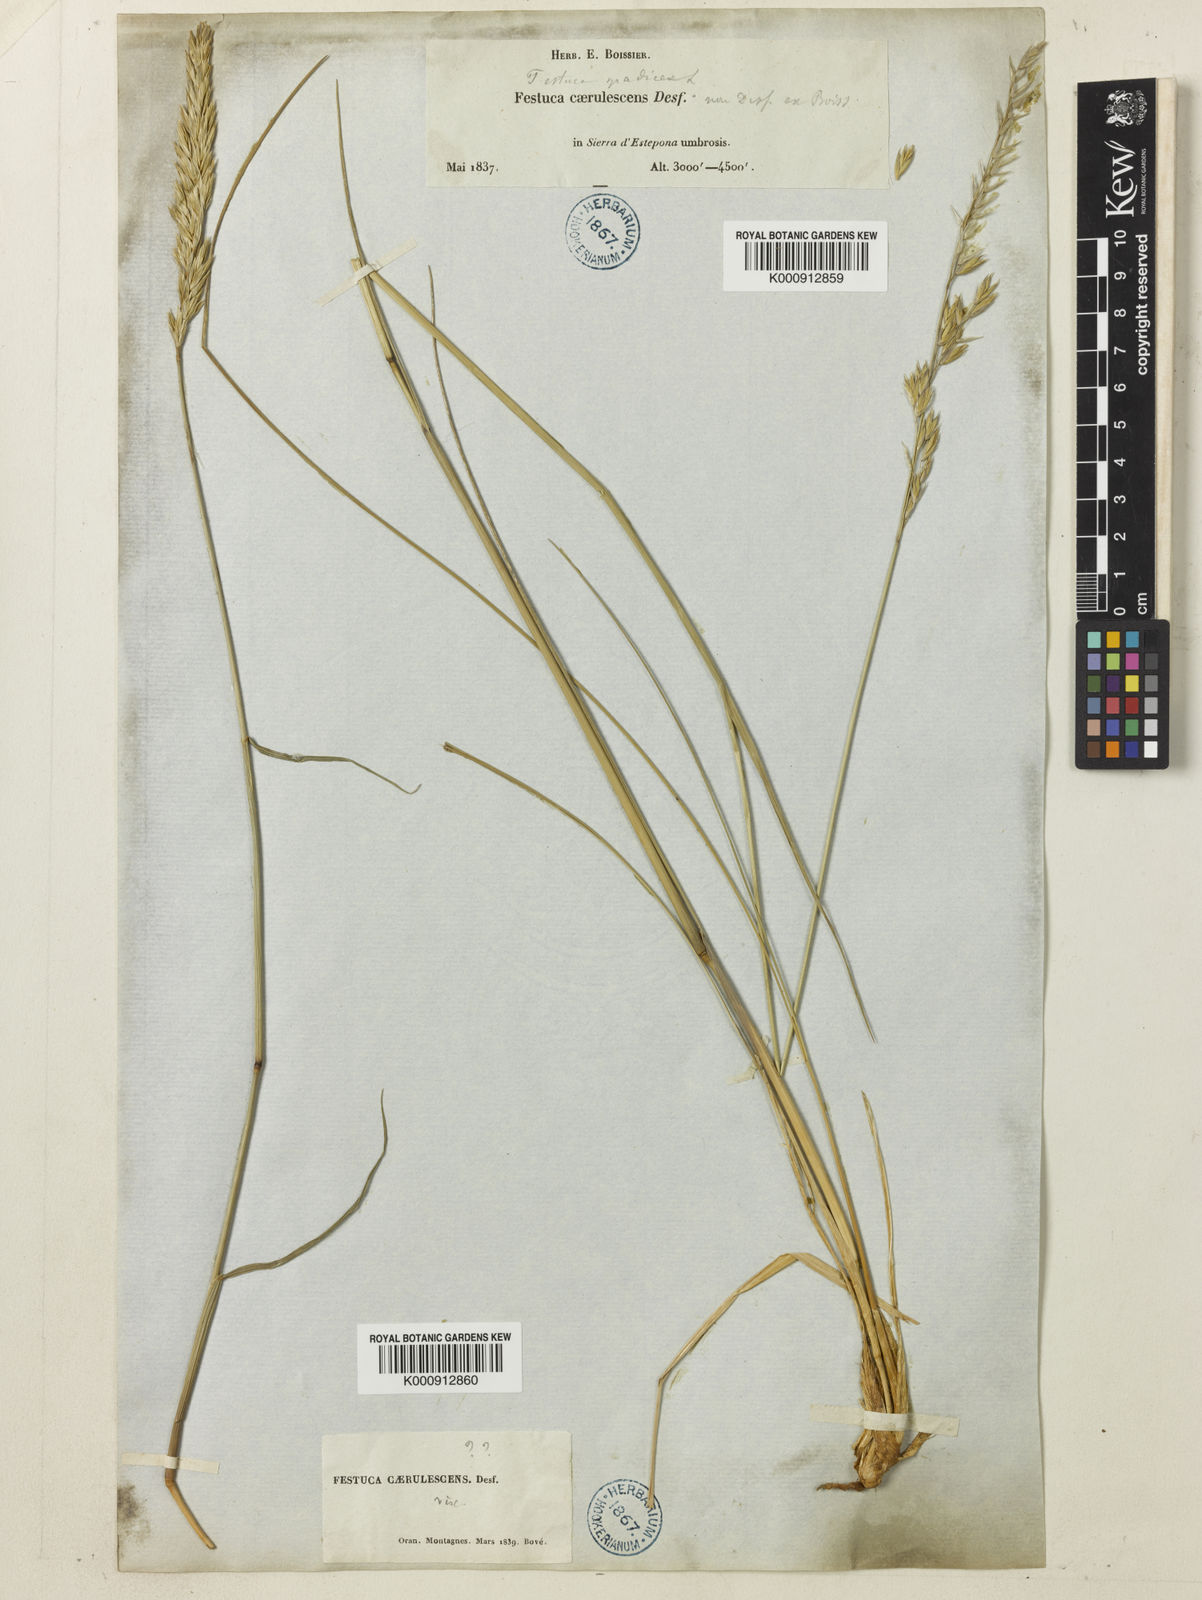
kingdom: Plantae
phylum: Tracheophyta
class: Liliopsida
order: Poales
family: Poaceae
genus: Patzkea
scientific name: Patzkea paniculata
